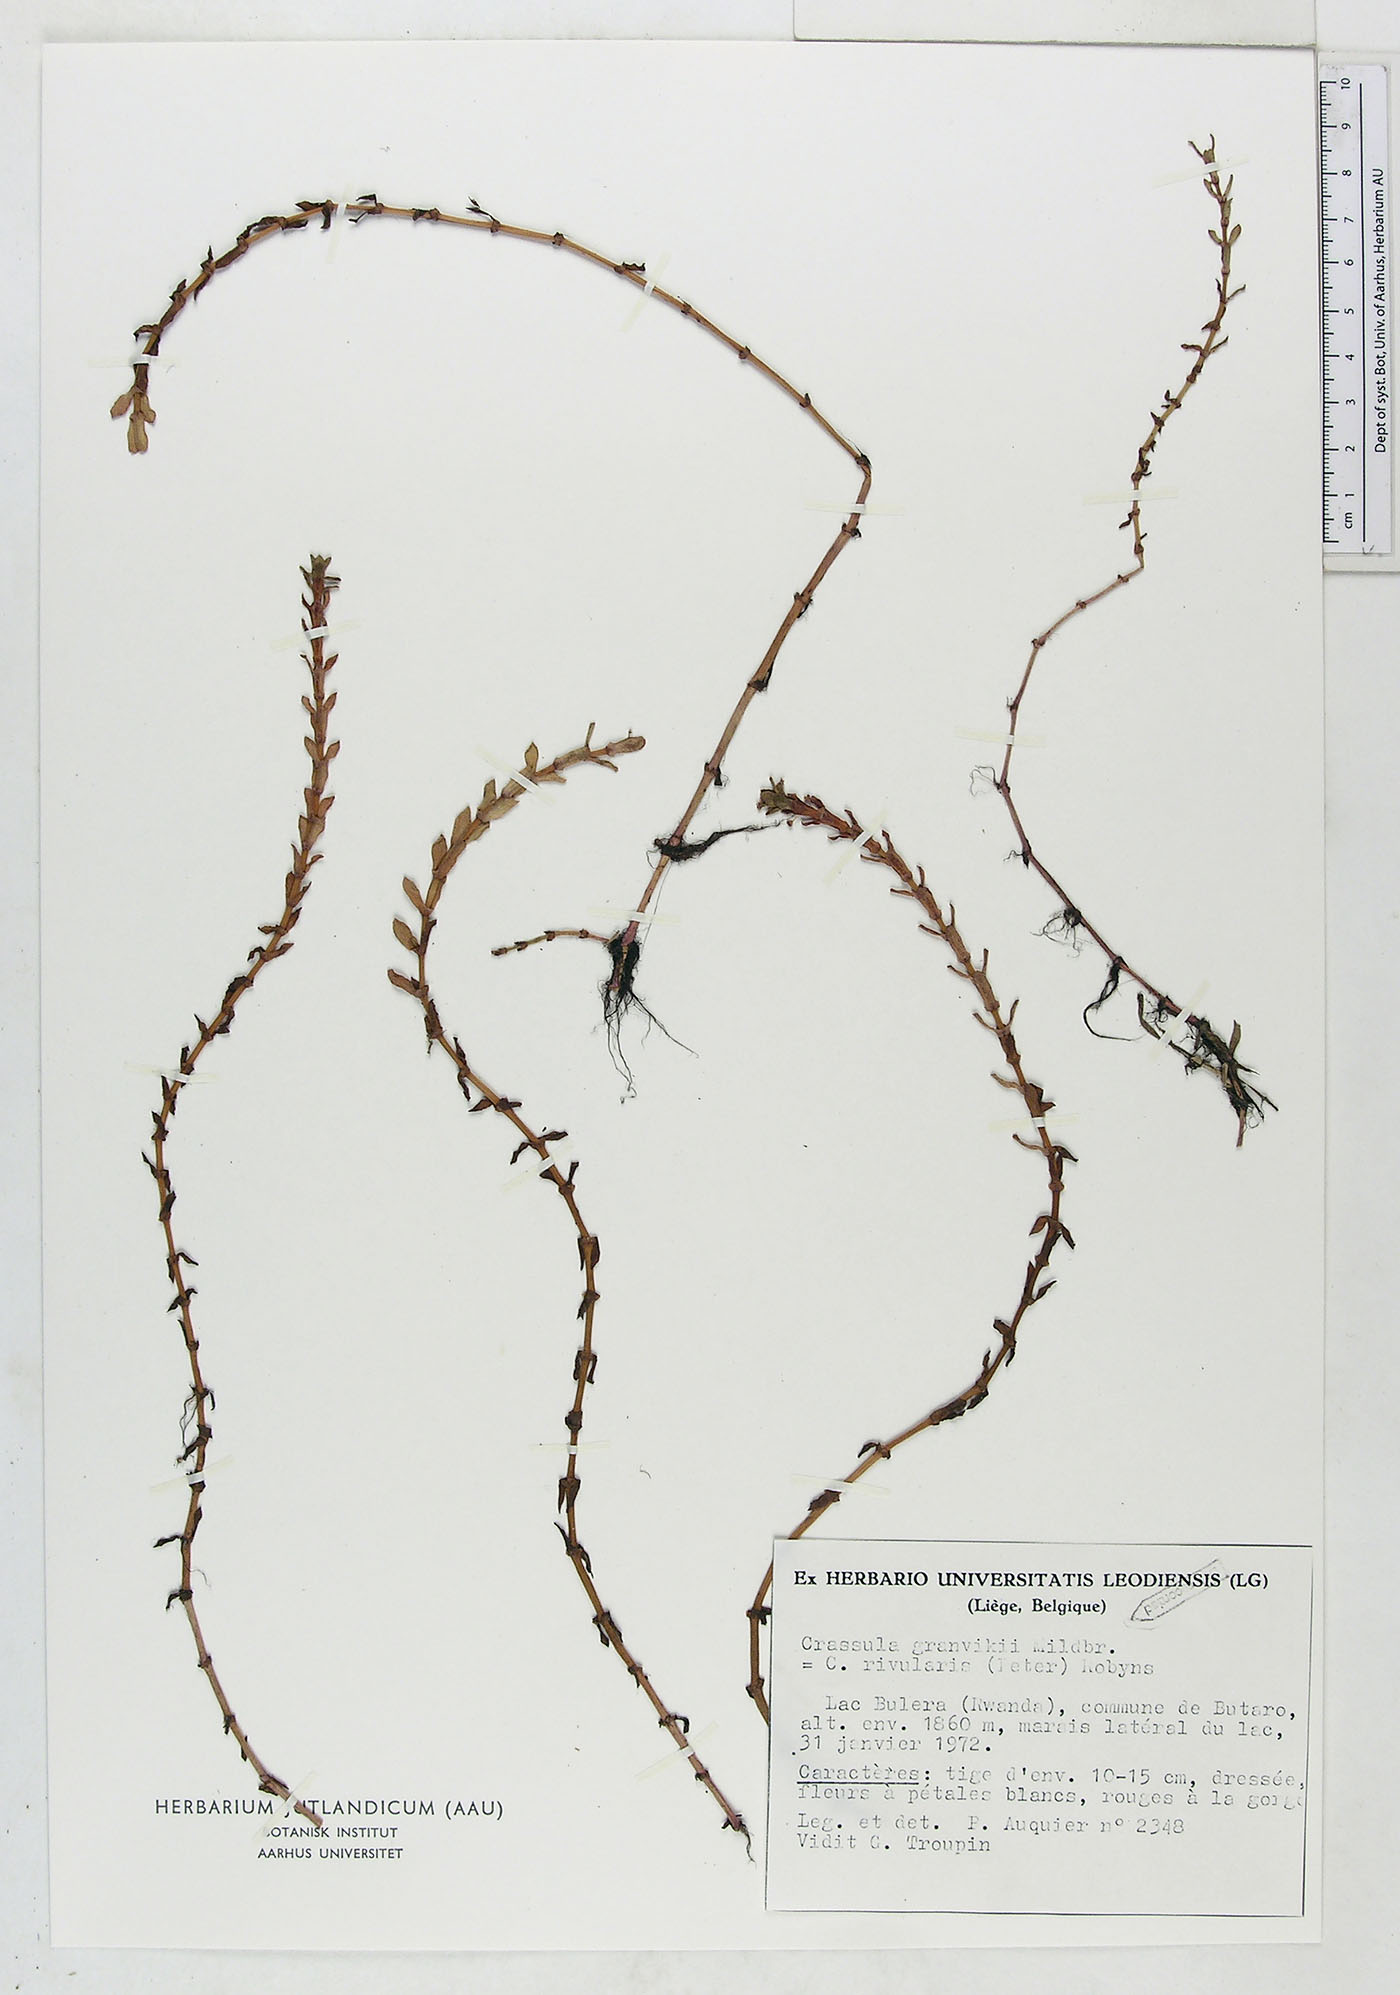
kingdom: Plantae
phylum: Tracheophyta
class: Magnoliopsida
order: Saxifragales
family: Crassulaceae
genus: Crassula
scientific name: Crassula granvikii
